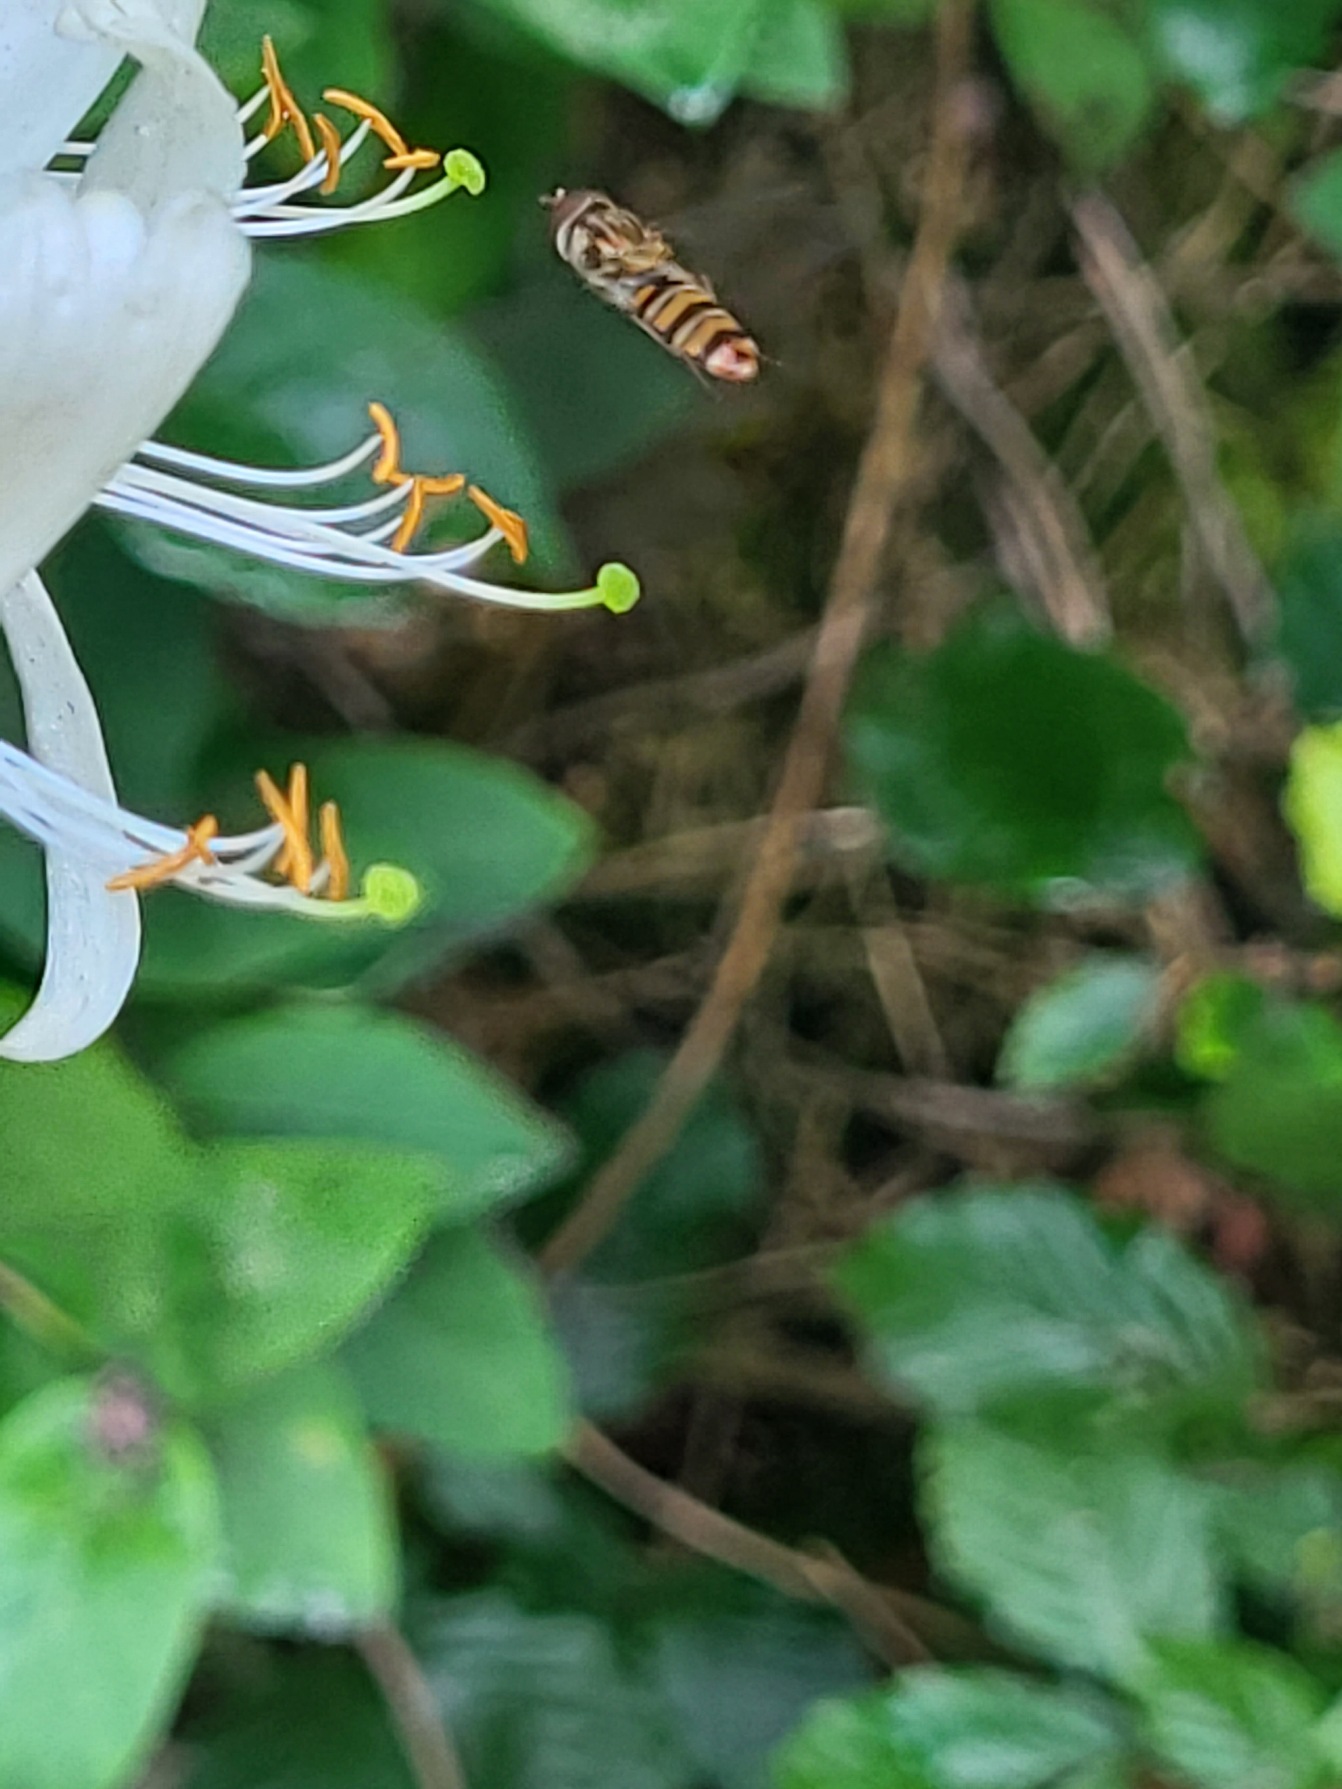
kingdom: Animalia
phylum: Arthropoda
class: Insecta
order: Diptera
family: Syrphidae
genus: Episyrphus
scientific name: Episyrphus balteatus
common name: Dobbeltbåndet svirreflue
